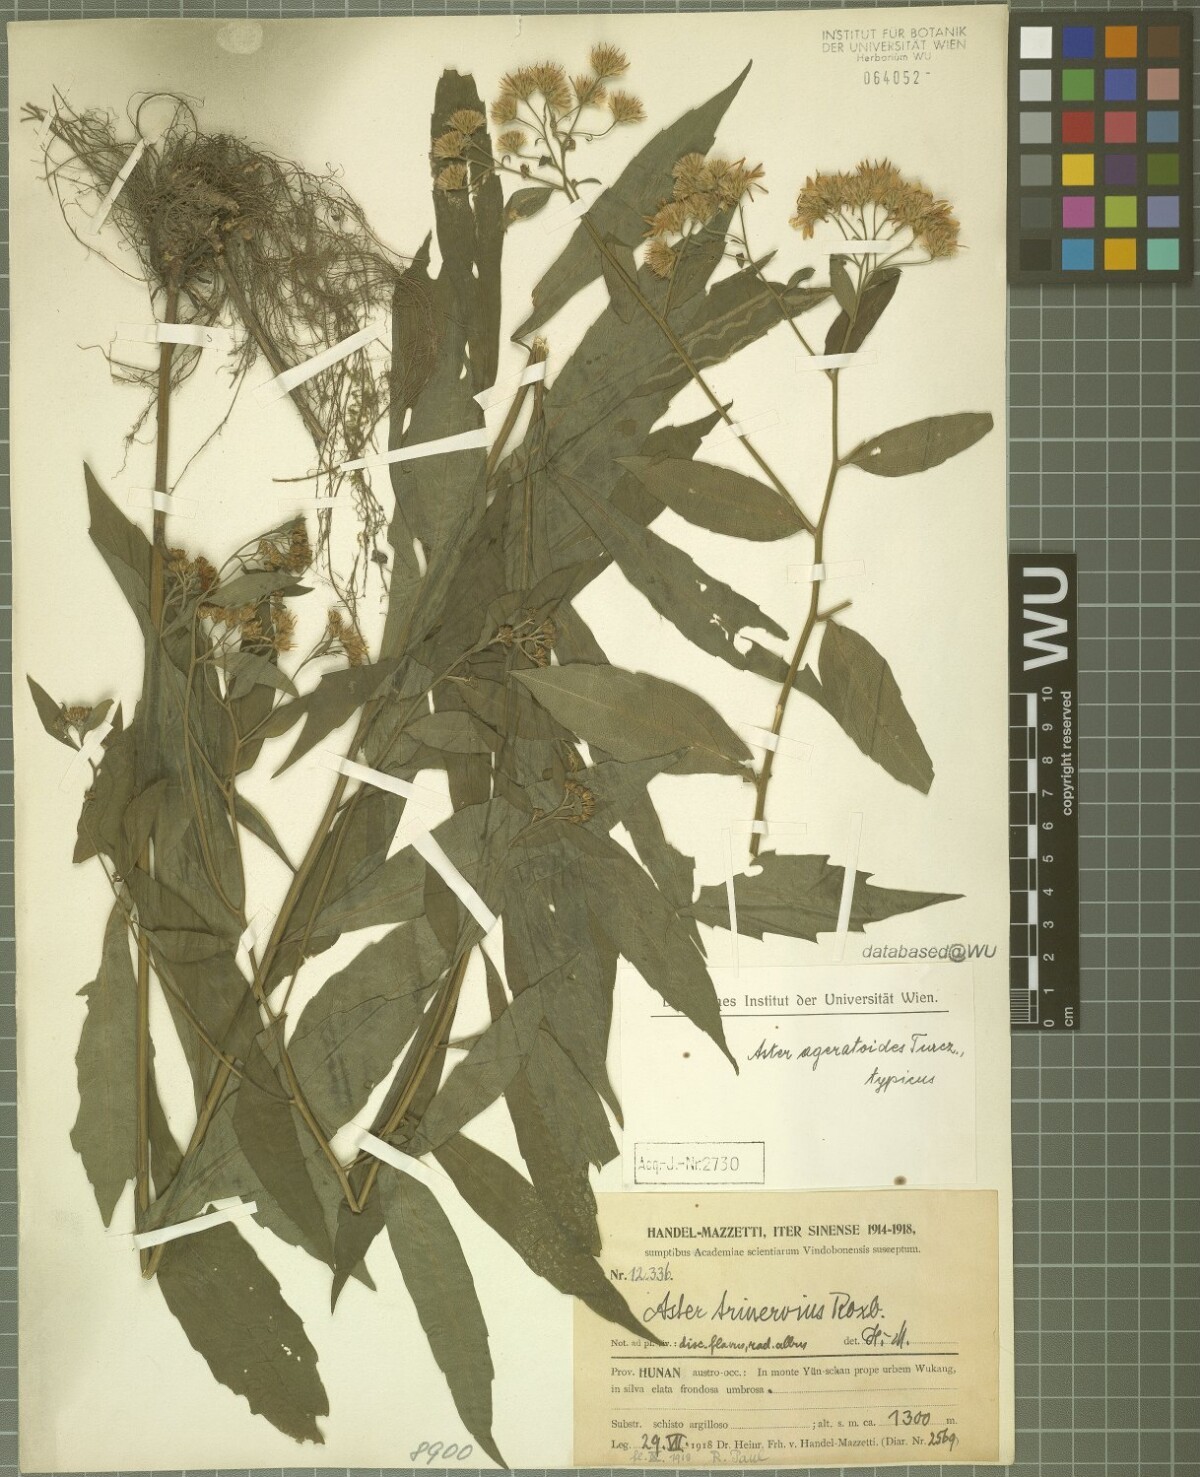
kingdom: Plantae
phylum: Tracheophyta
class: Magnoliopsida
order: Asterales
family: Asteraceae
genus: Aster
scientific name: Aster ageratoides
